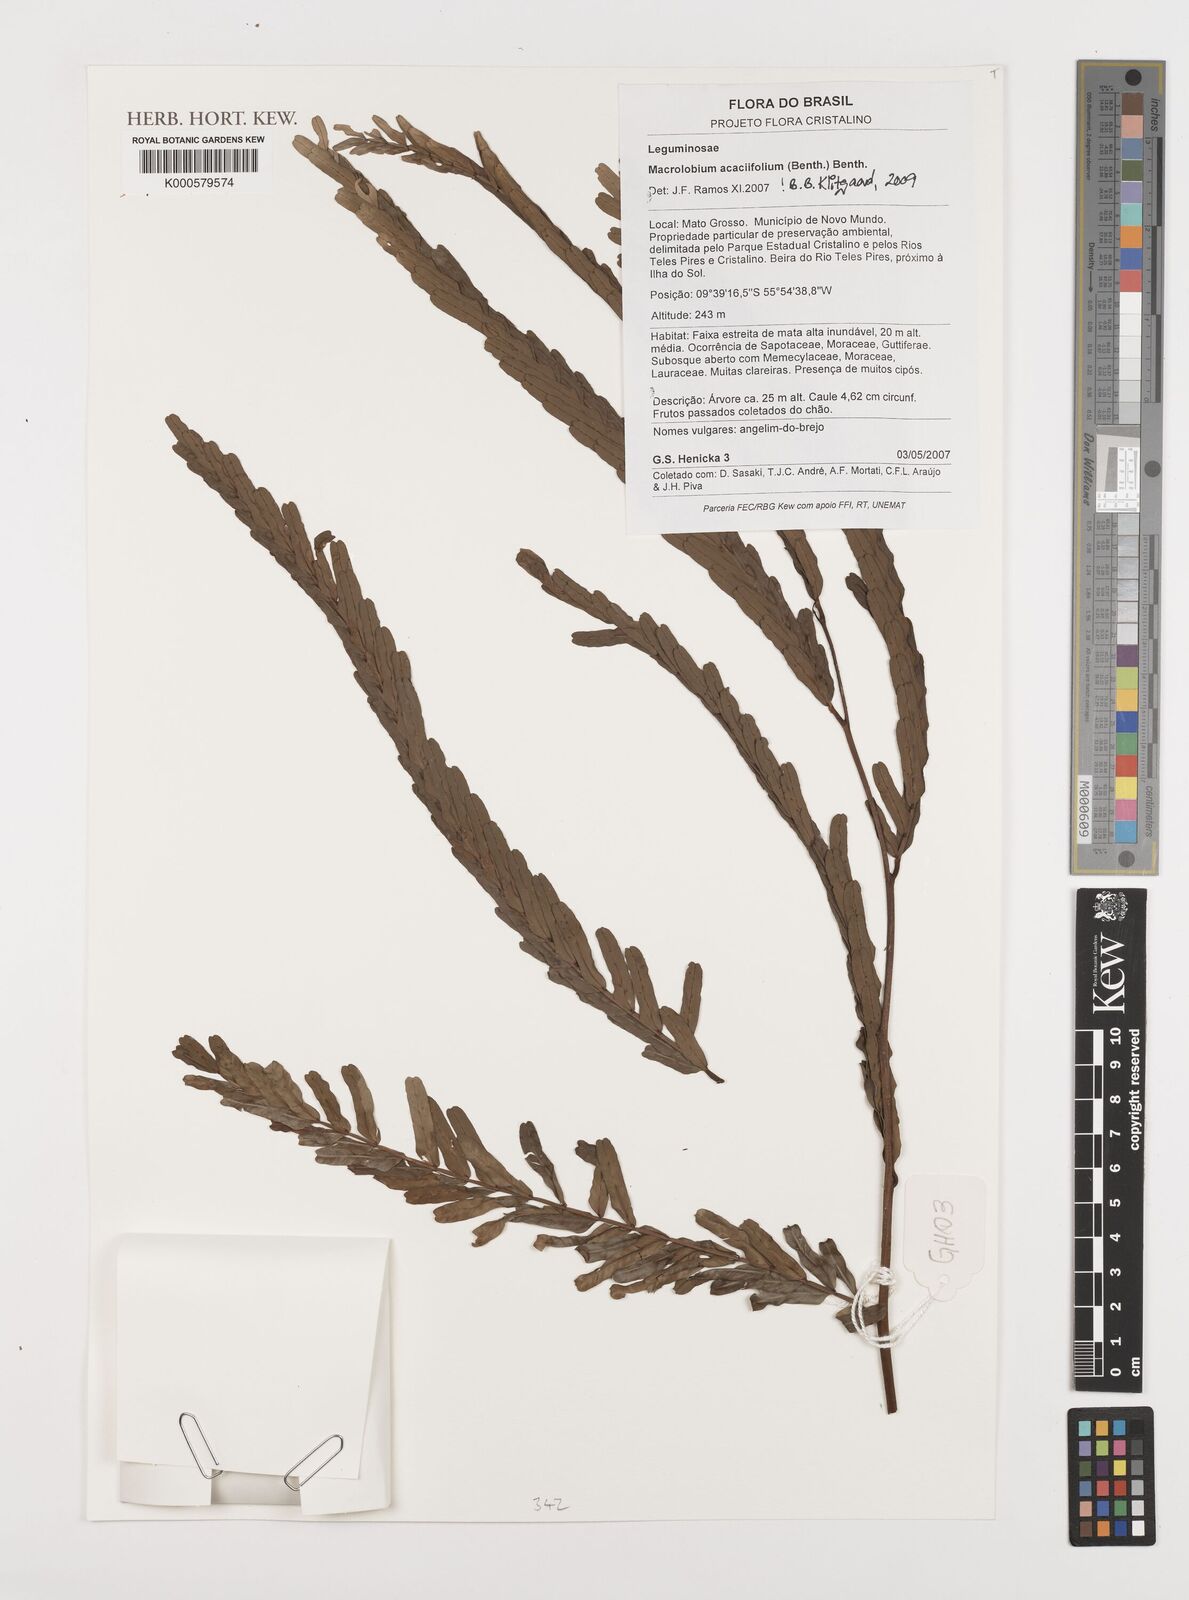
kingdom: Plantae
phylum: Tracheophyta
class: Magnoliopsida
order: Fabales
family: Fabaceae
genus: Macrolobium
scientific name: Macrolobium acaciifolium
